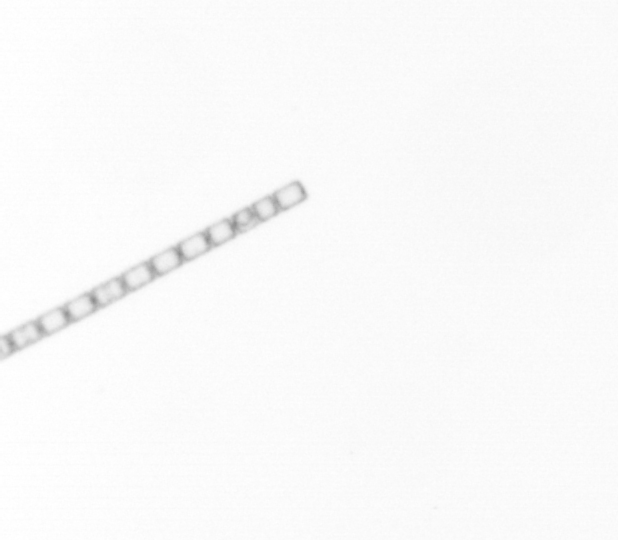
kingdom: Chromista
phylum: Ochrophyta
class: Bacillariophyceae
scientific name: Bacillariophyceae
